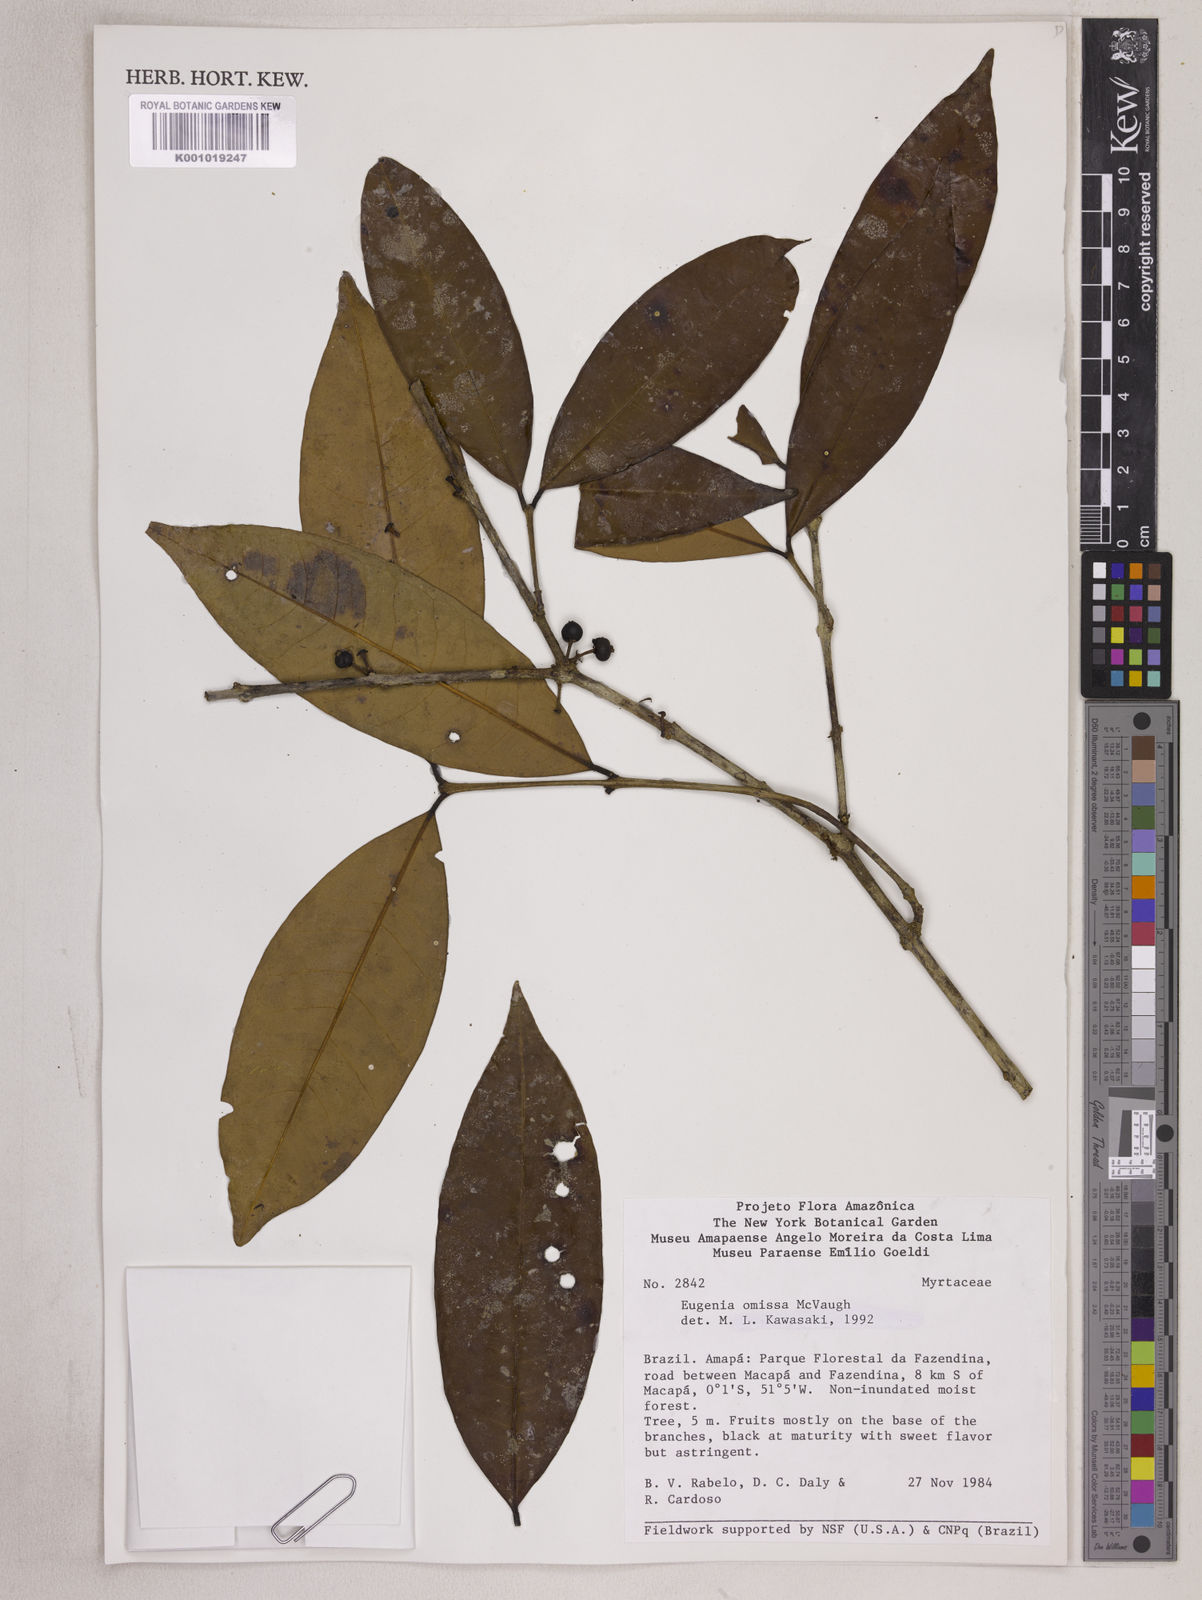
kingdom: Plantae
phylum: Tracheophyta
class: Magnoliopsida
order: Myrtales
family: Myrtaceae
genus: Eugenia
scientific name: Eugenia omissa
